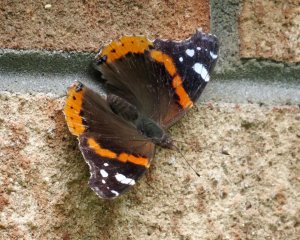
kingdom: Animalia
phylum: Arthropoda
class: Insecta
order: Lepidoptera
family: Nymphalidae
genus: Vanessa
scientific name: Vanessa atalanta
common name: Red Admiral
